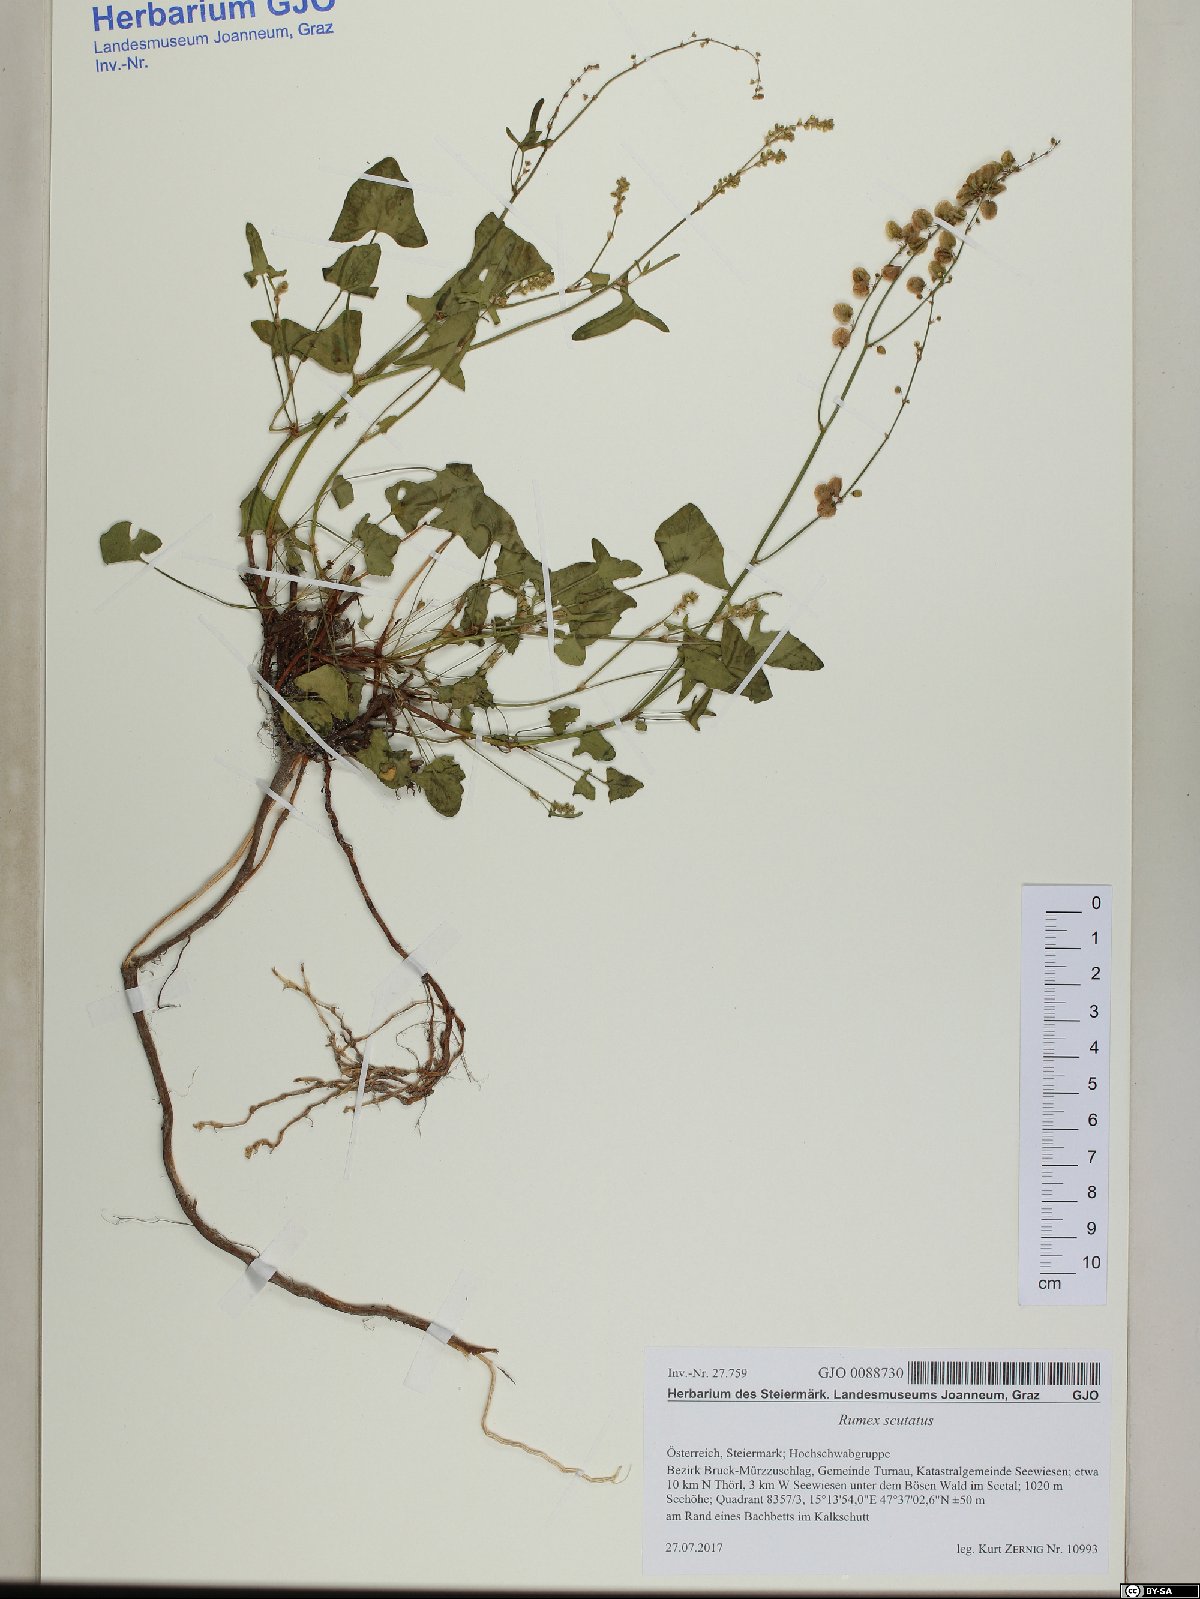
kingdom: Plantae
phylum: Tracheophyta
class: Magnoliopsida
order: Caryophyllales
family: Polygonaceae
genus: Rumex
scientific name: Rumex scutatus
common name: French sorrel
